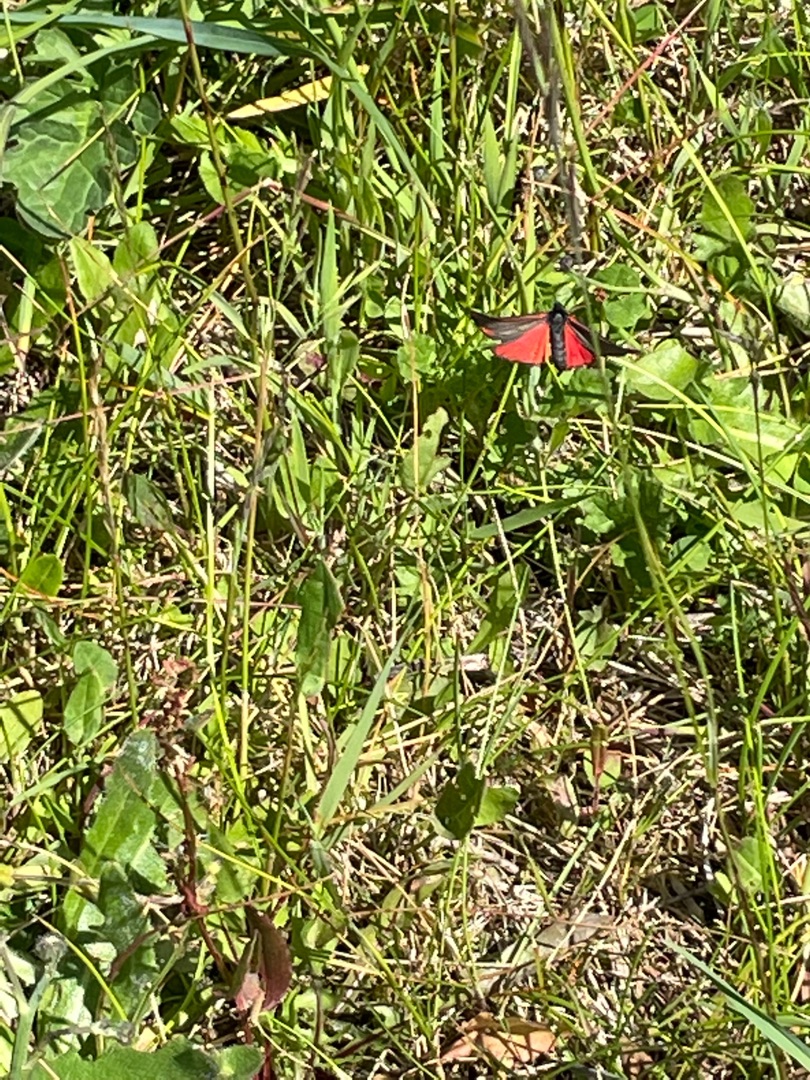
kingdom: Animalia
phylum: Arthropoda
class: Insecta
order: Lepidoptera
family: Erebidae
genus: Tyria
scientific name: Tyria jacobaeae
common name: Blodplet
